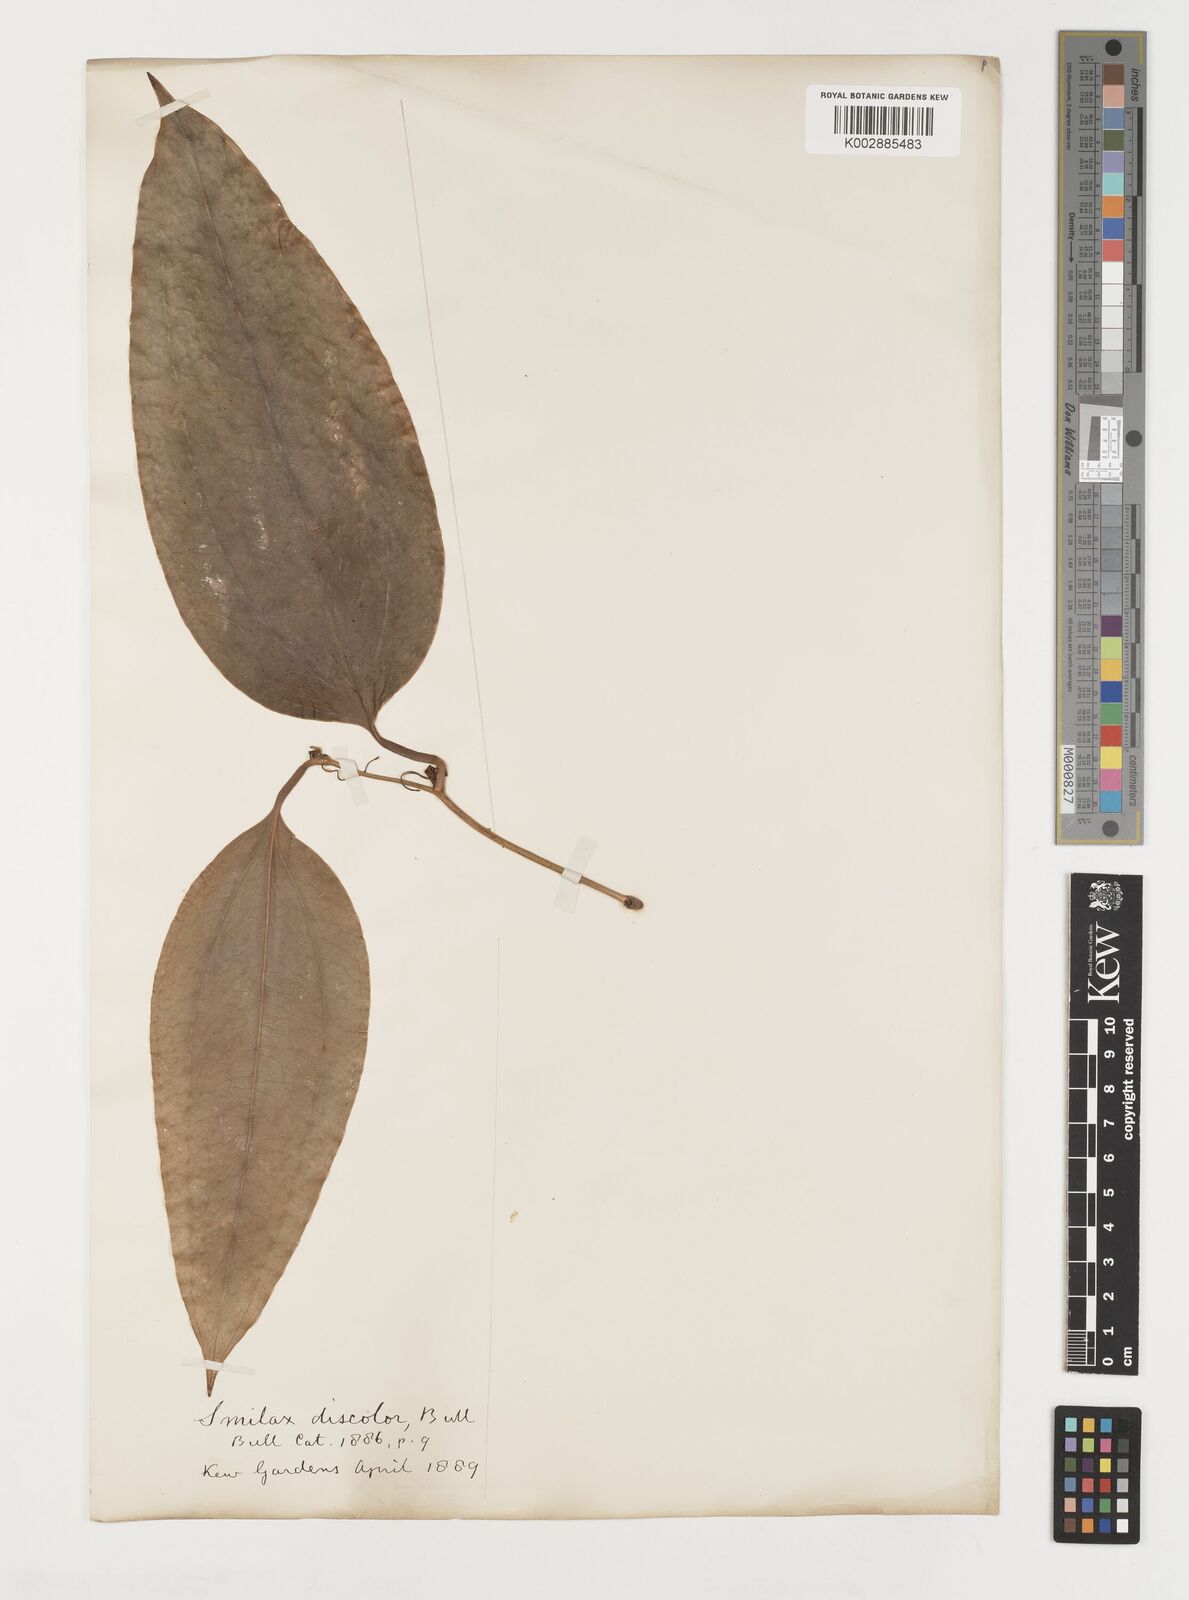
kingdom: Plantae
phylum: Tracheophyta
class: Liliopsida
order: Liliales
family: Smilacaceae
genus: Smilax
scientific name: Smilax
